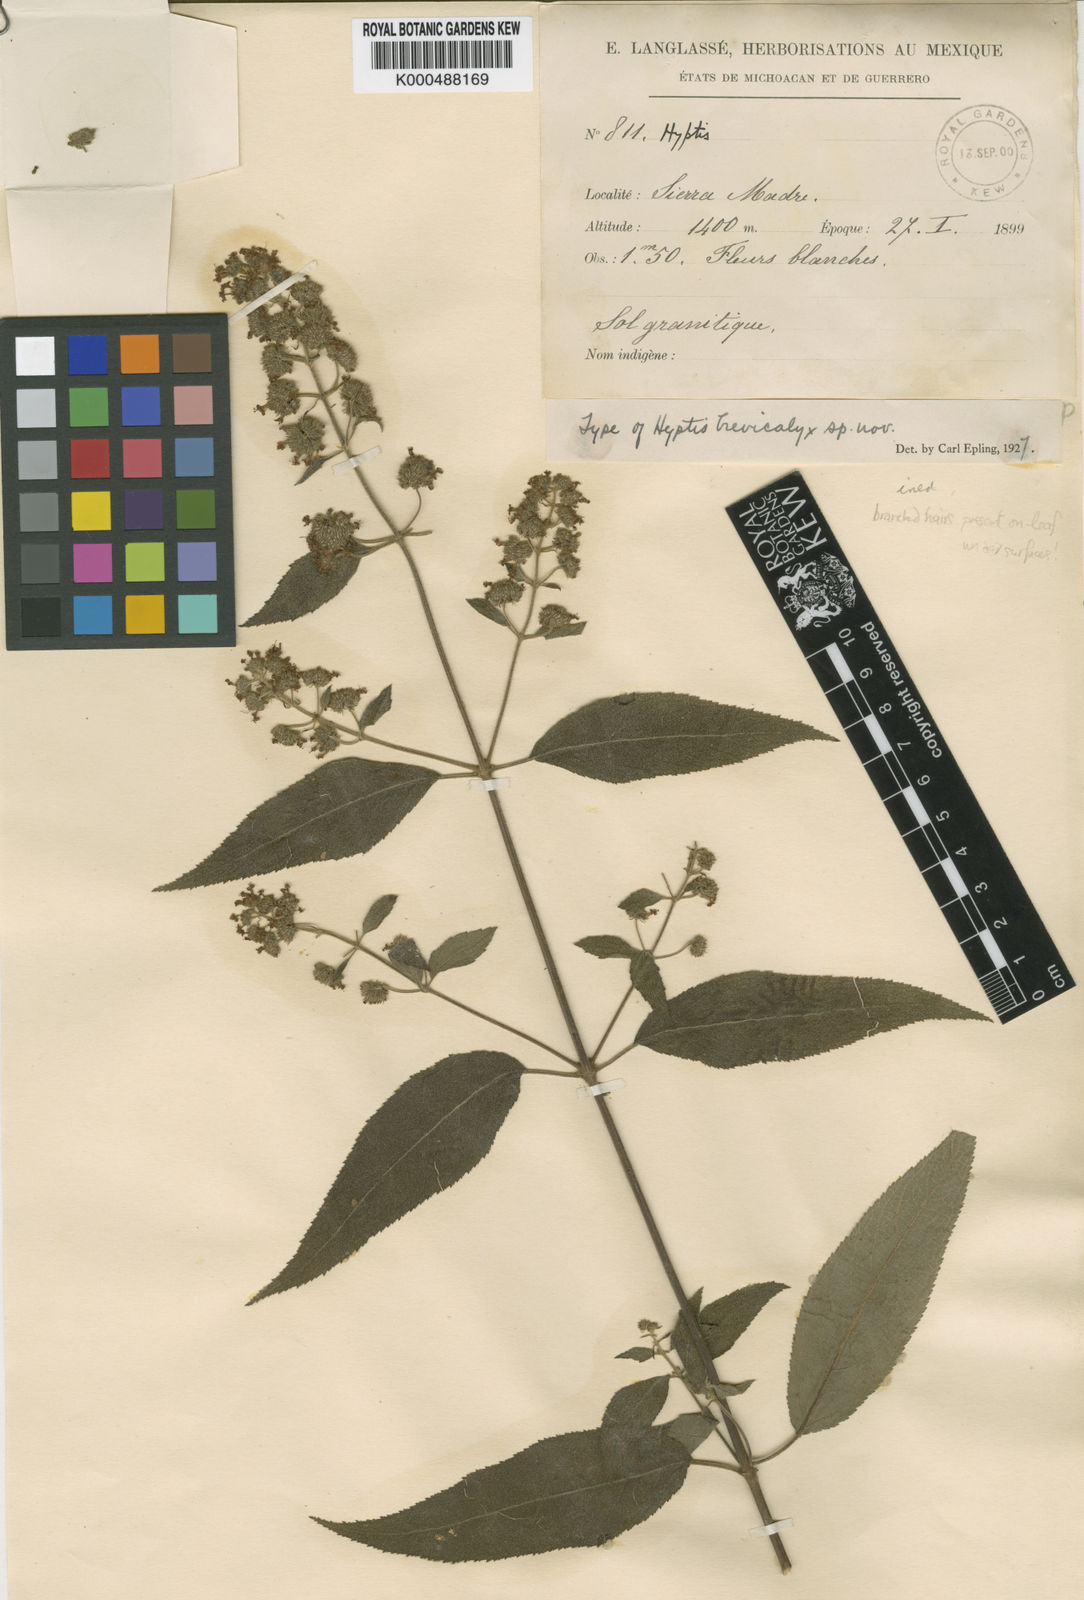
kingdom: Plantae
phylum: Tracheophyta
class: Magnoliopsida
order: Lamiales
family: Lamiaceae
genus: Mesosphaerum
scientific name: Mesosphaerum oblongifolium
